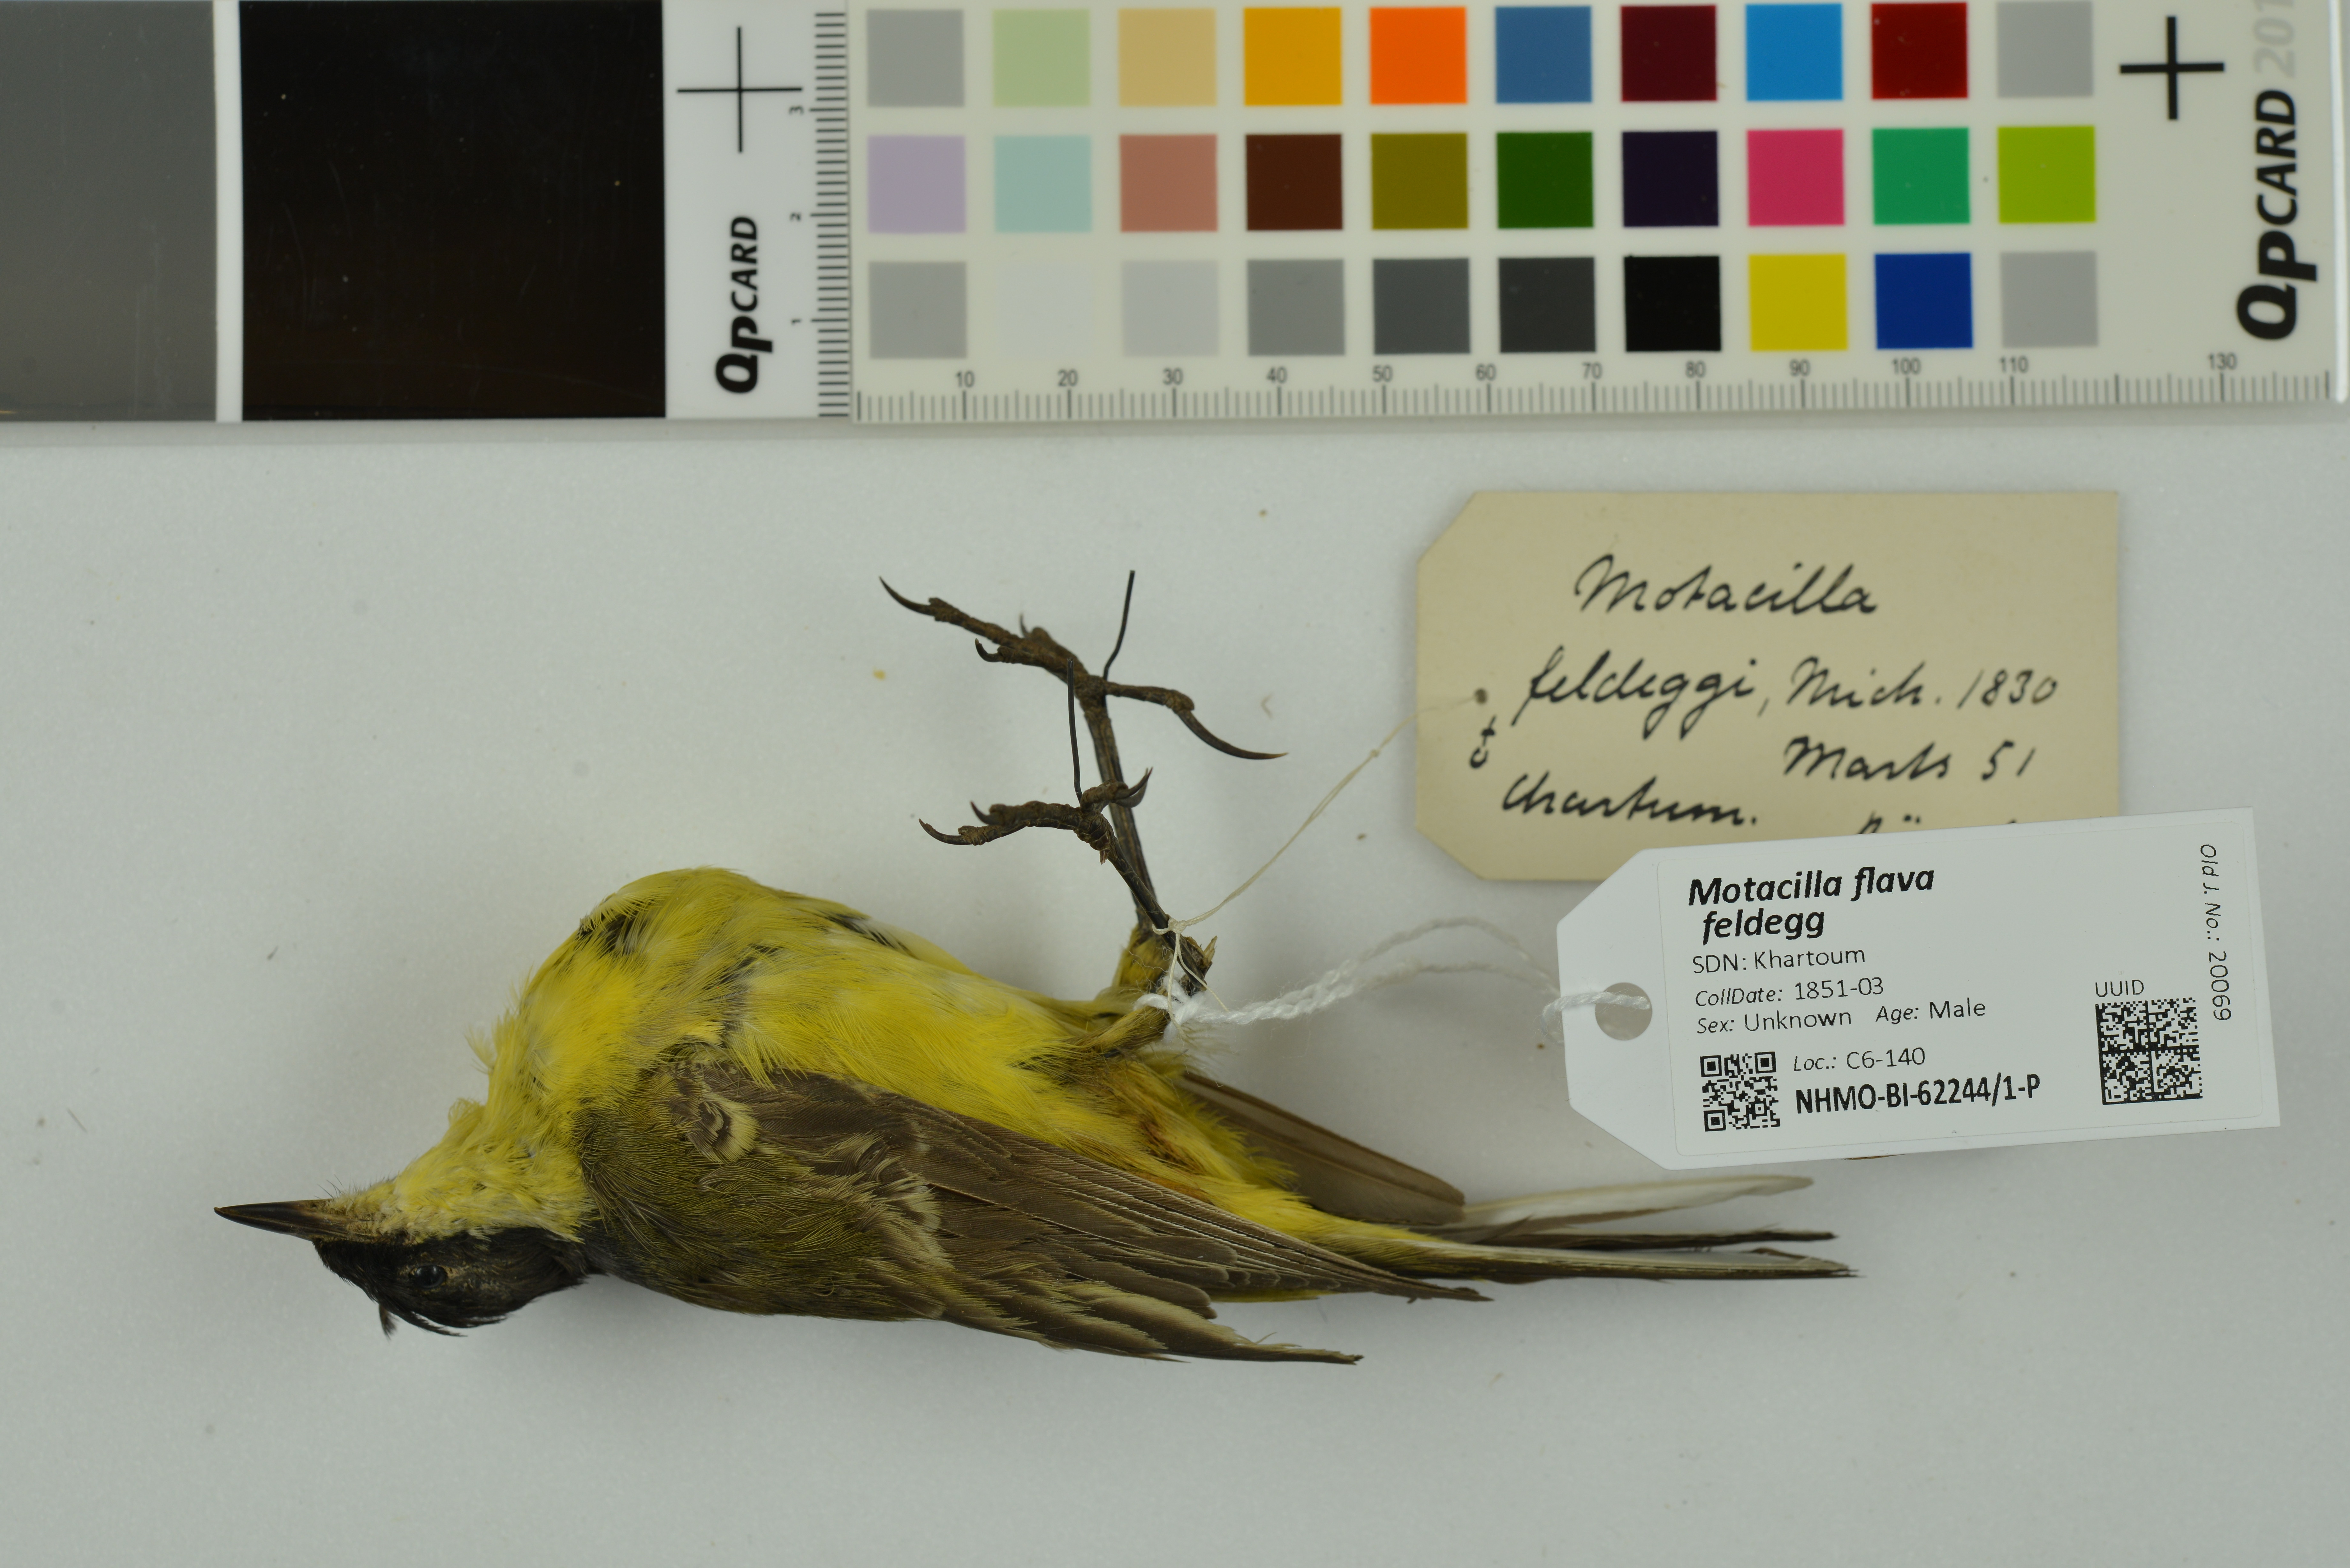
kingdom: Animalia
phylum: Chordata
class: Aves
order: Passeriformes
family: Motacillidae
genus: Motacilla
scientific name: Motacilla flava
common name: Western yellow wagtail
